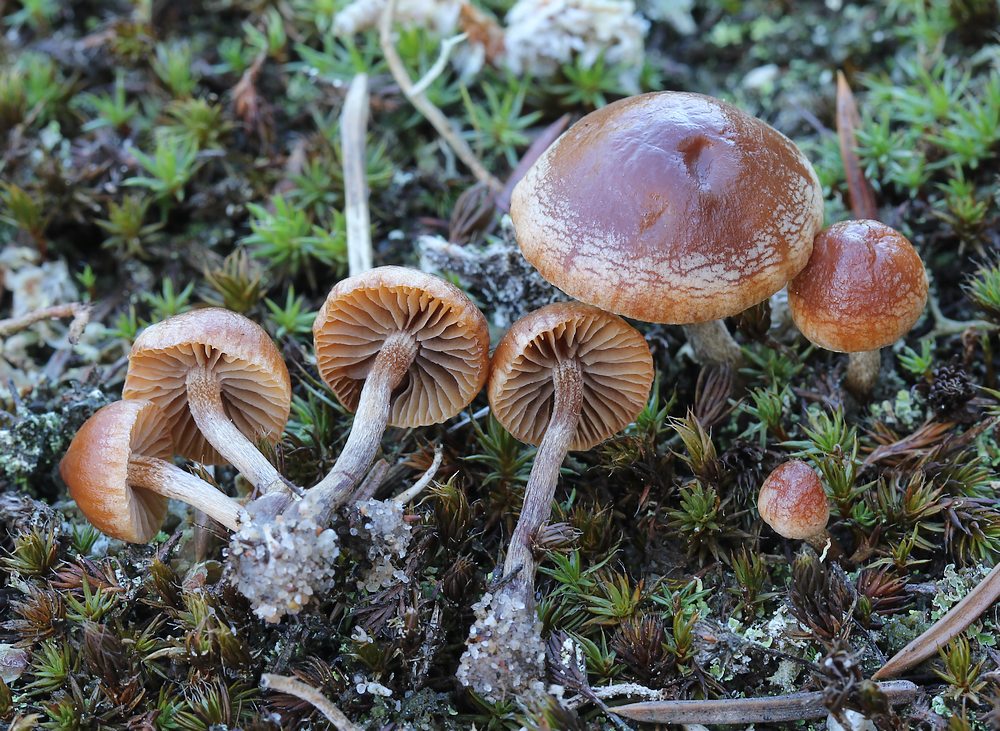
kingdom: Fungi
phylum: Basidiomycota
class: Agaricomycetes
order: Agaricales
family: Strophariaceae
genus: Deconica
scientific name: Deconica montana
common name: rødbrun stråhat
